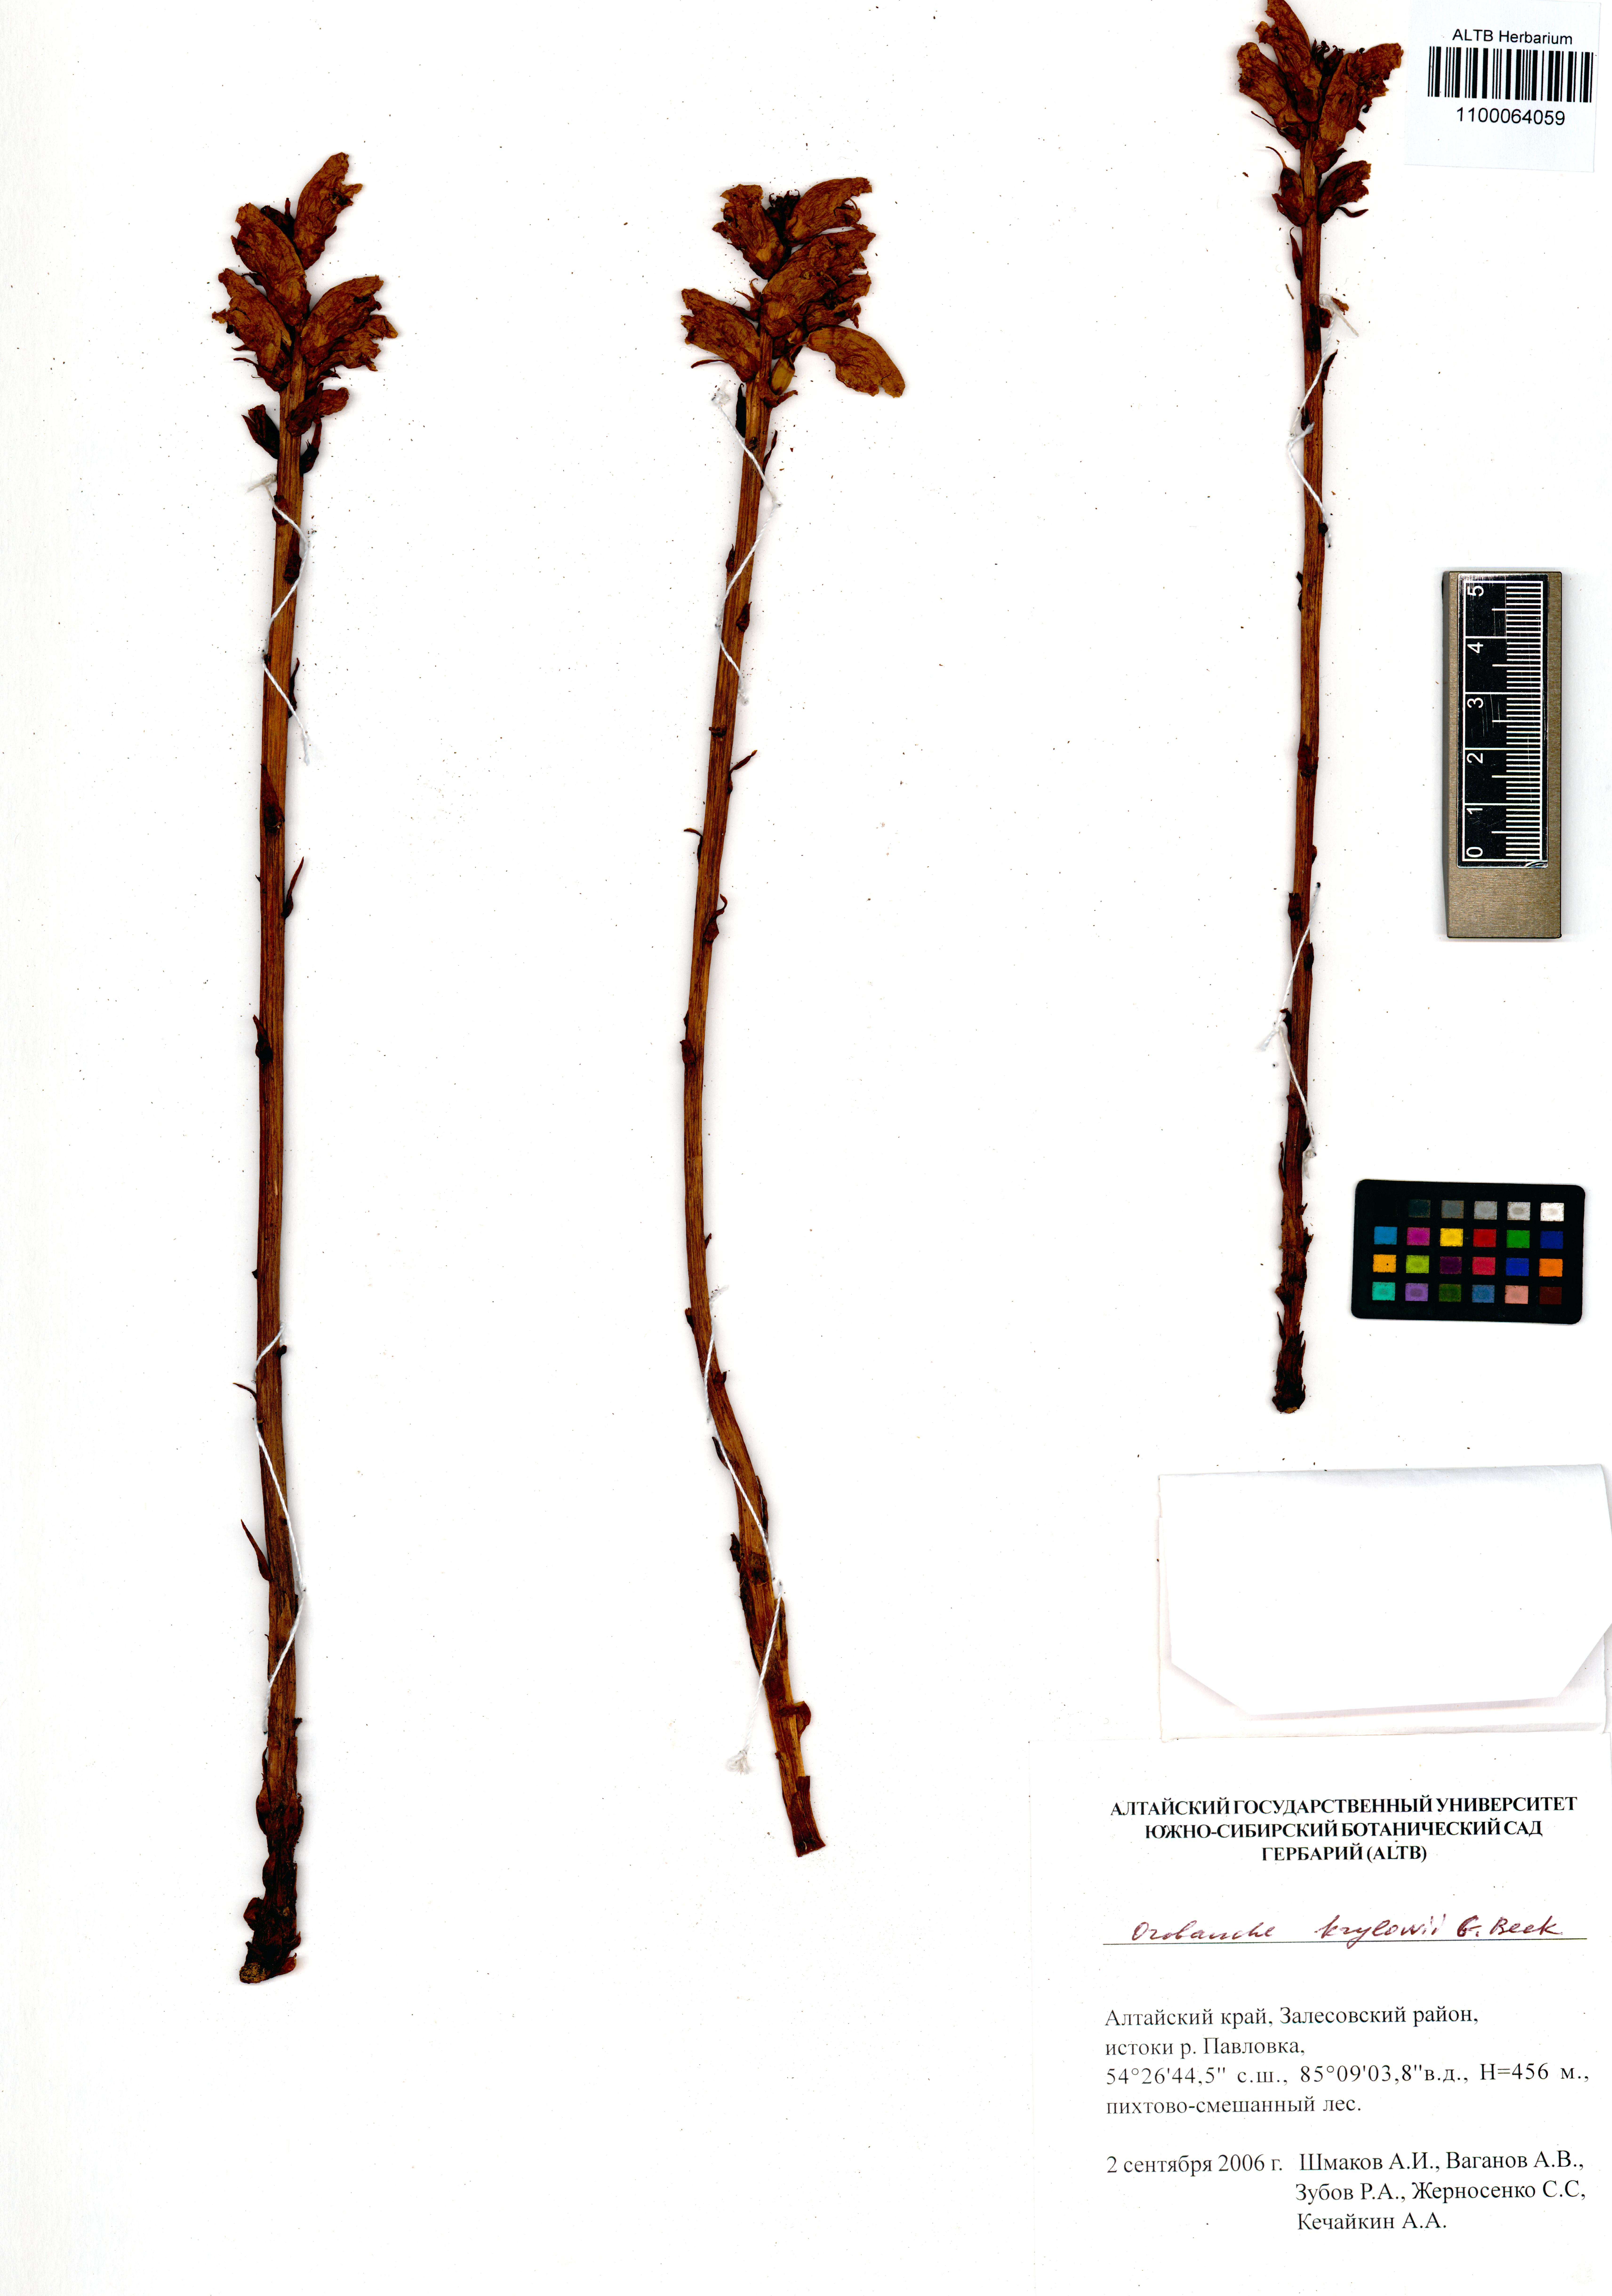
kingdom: Plantae
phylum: Tracheophyta
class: Magnoliopsida
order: Lamiales
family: Orobanchaceae
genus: Orobanche
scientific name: Orobanche krylowii
